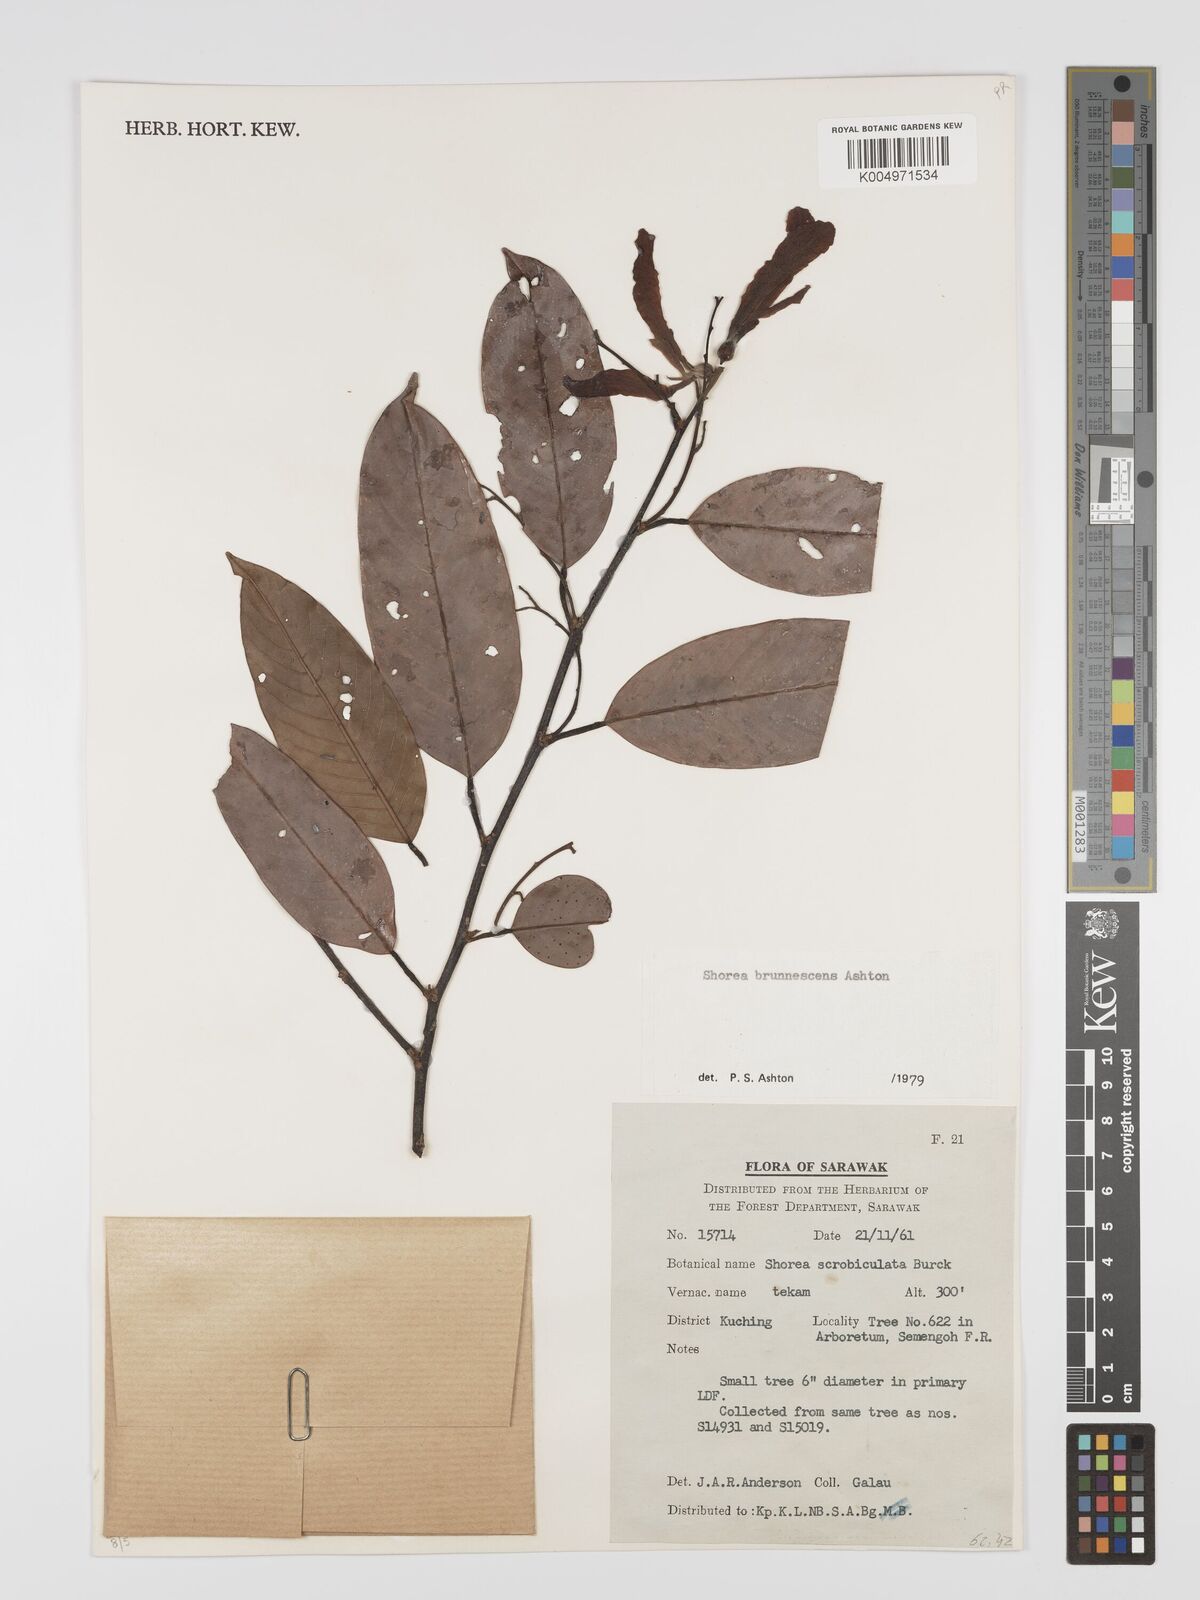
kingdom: Plantae
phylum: Tracheophyta
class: Magnoliopsida
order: Malvales
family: Dipterocarpaceae
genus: Shorea
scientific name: Shorea brunnescens
